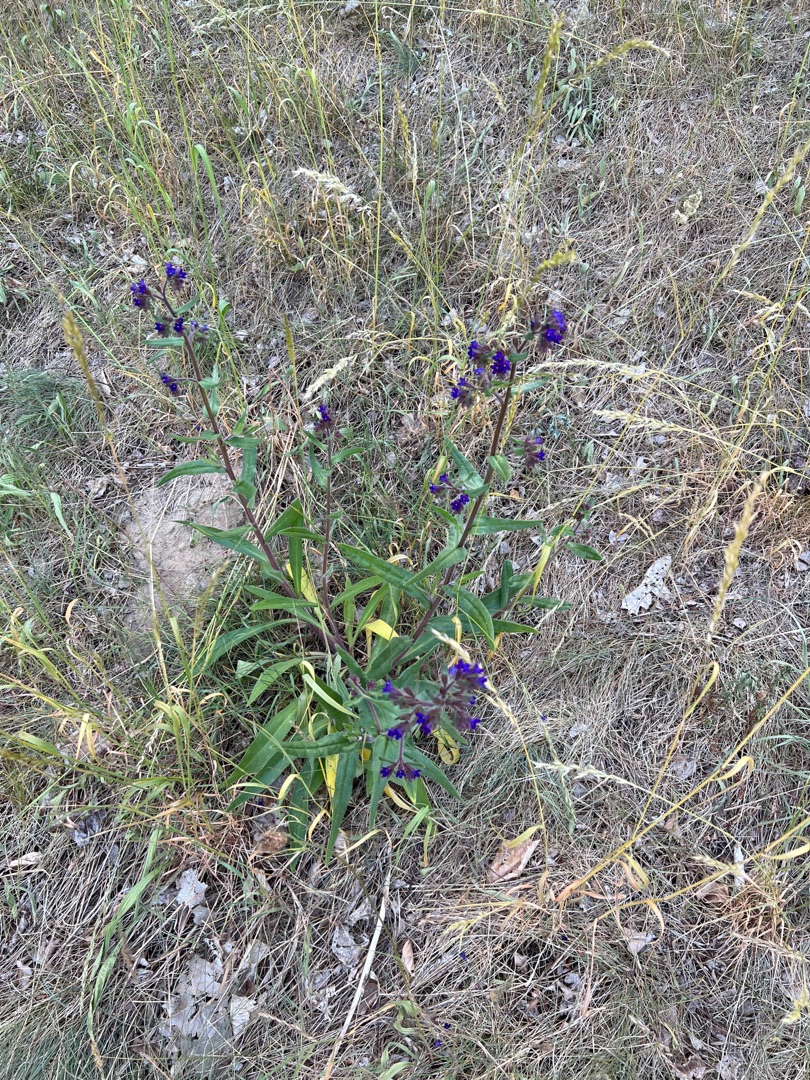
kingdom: Plantae
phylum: Tracheophyta
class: Magnoliopsida
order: Boraginales
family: Boraginaceae
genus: Anchusa
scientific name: Anchusa officinalis
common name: Læge-oksetunge
